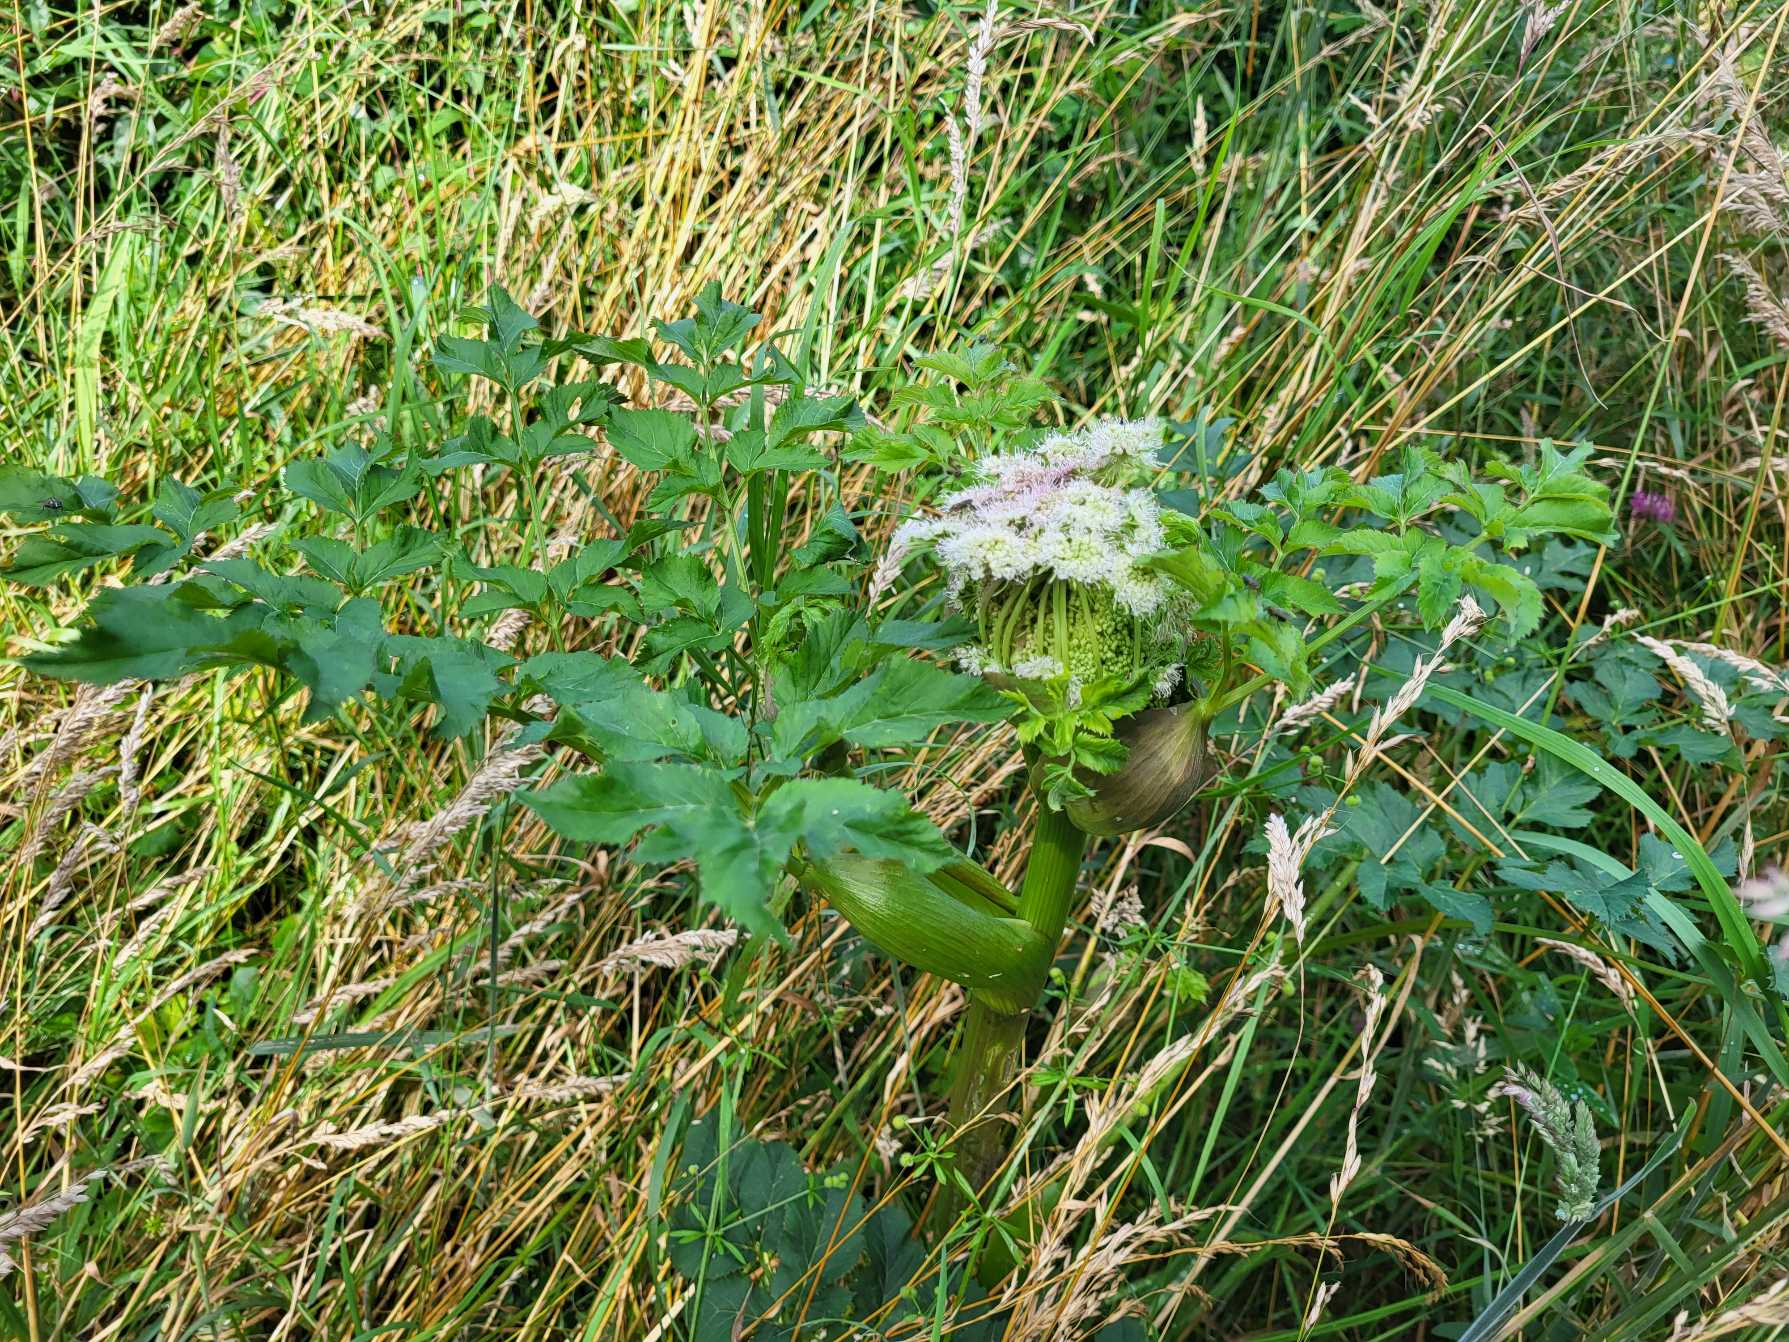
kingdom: Plantae
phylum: Tracheophyta
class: Magnoliopsida
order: Apiales
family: Apiaceae
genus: Angelica
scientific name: Angelica sylvestris
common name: Angelik
